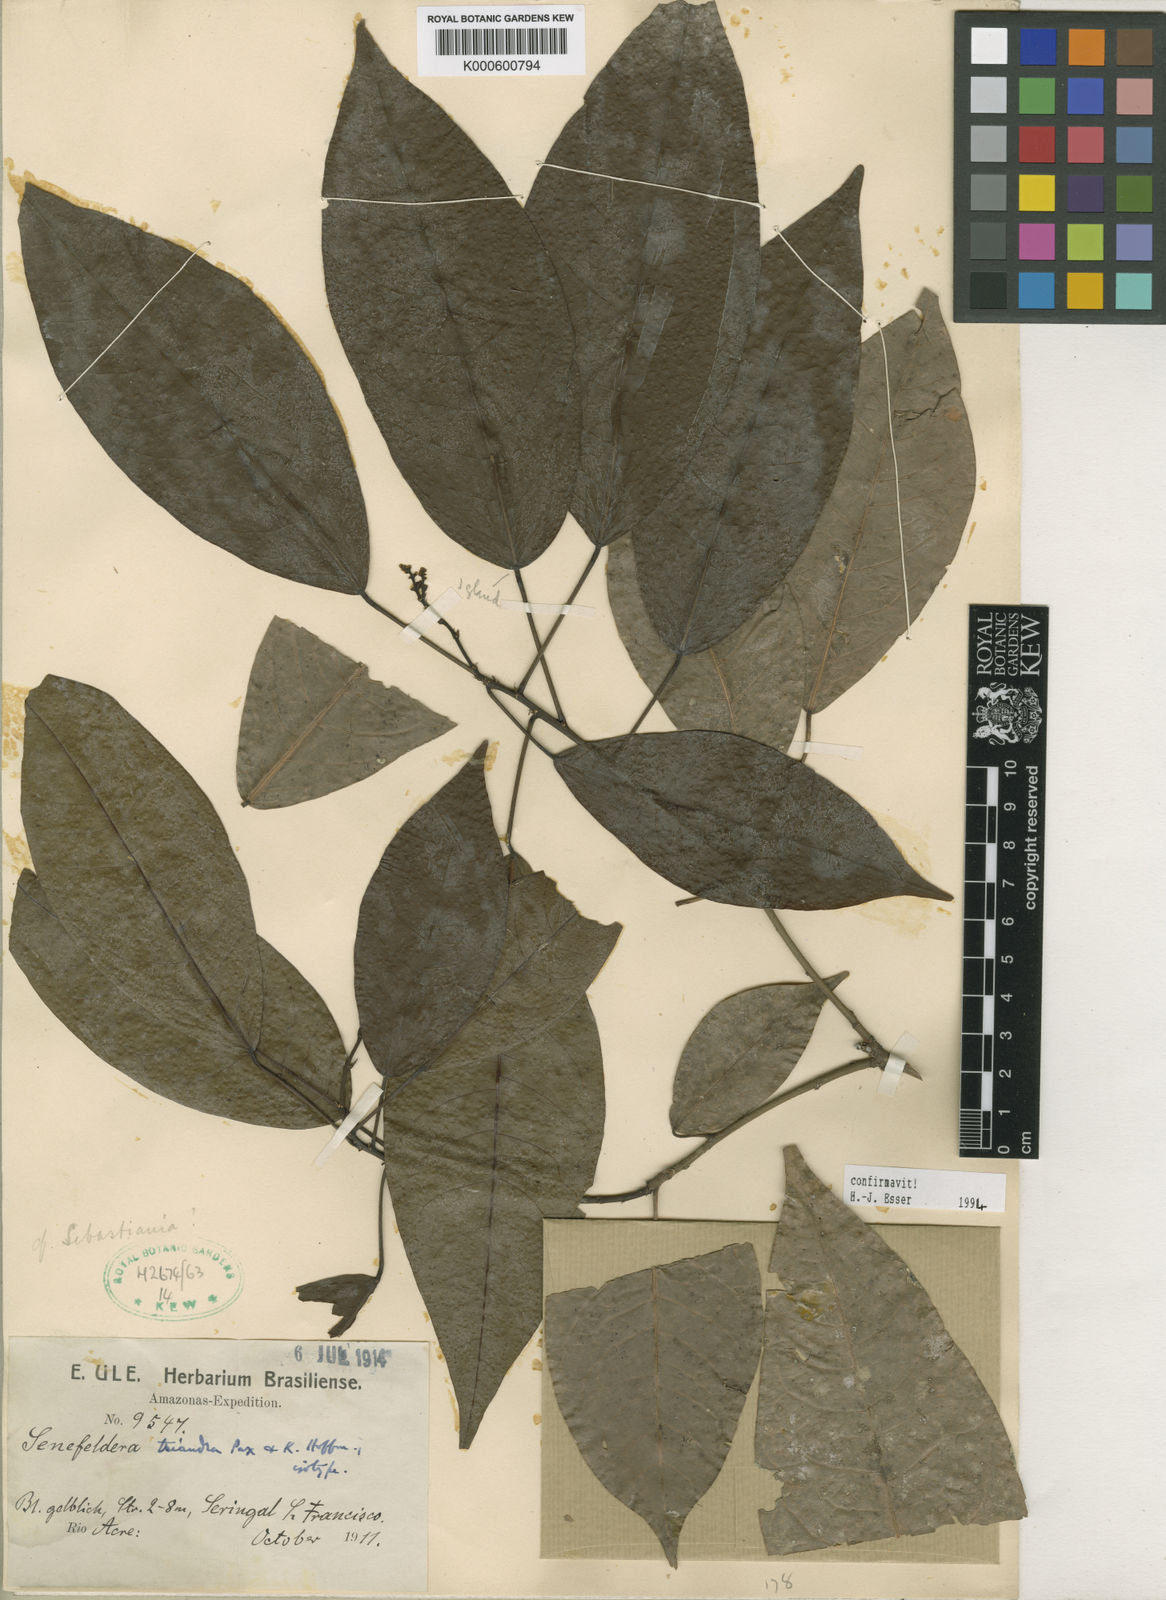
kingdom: Plantae
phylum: Tracheophyta
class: Magnoliopsida
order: Malpighiales
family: Euphorbiaceae
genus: Senefeldera
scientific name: Senefeldera triandra
